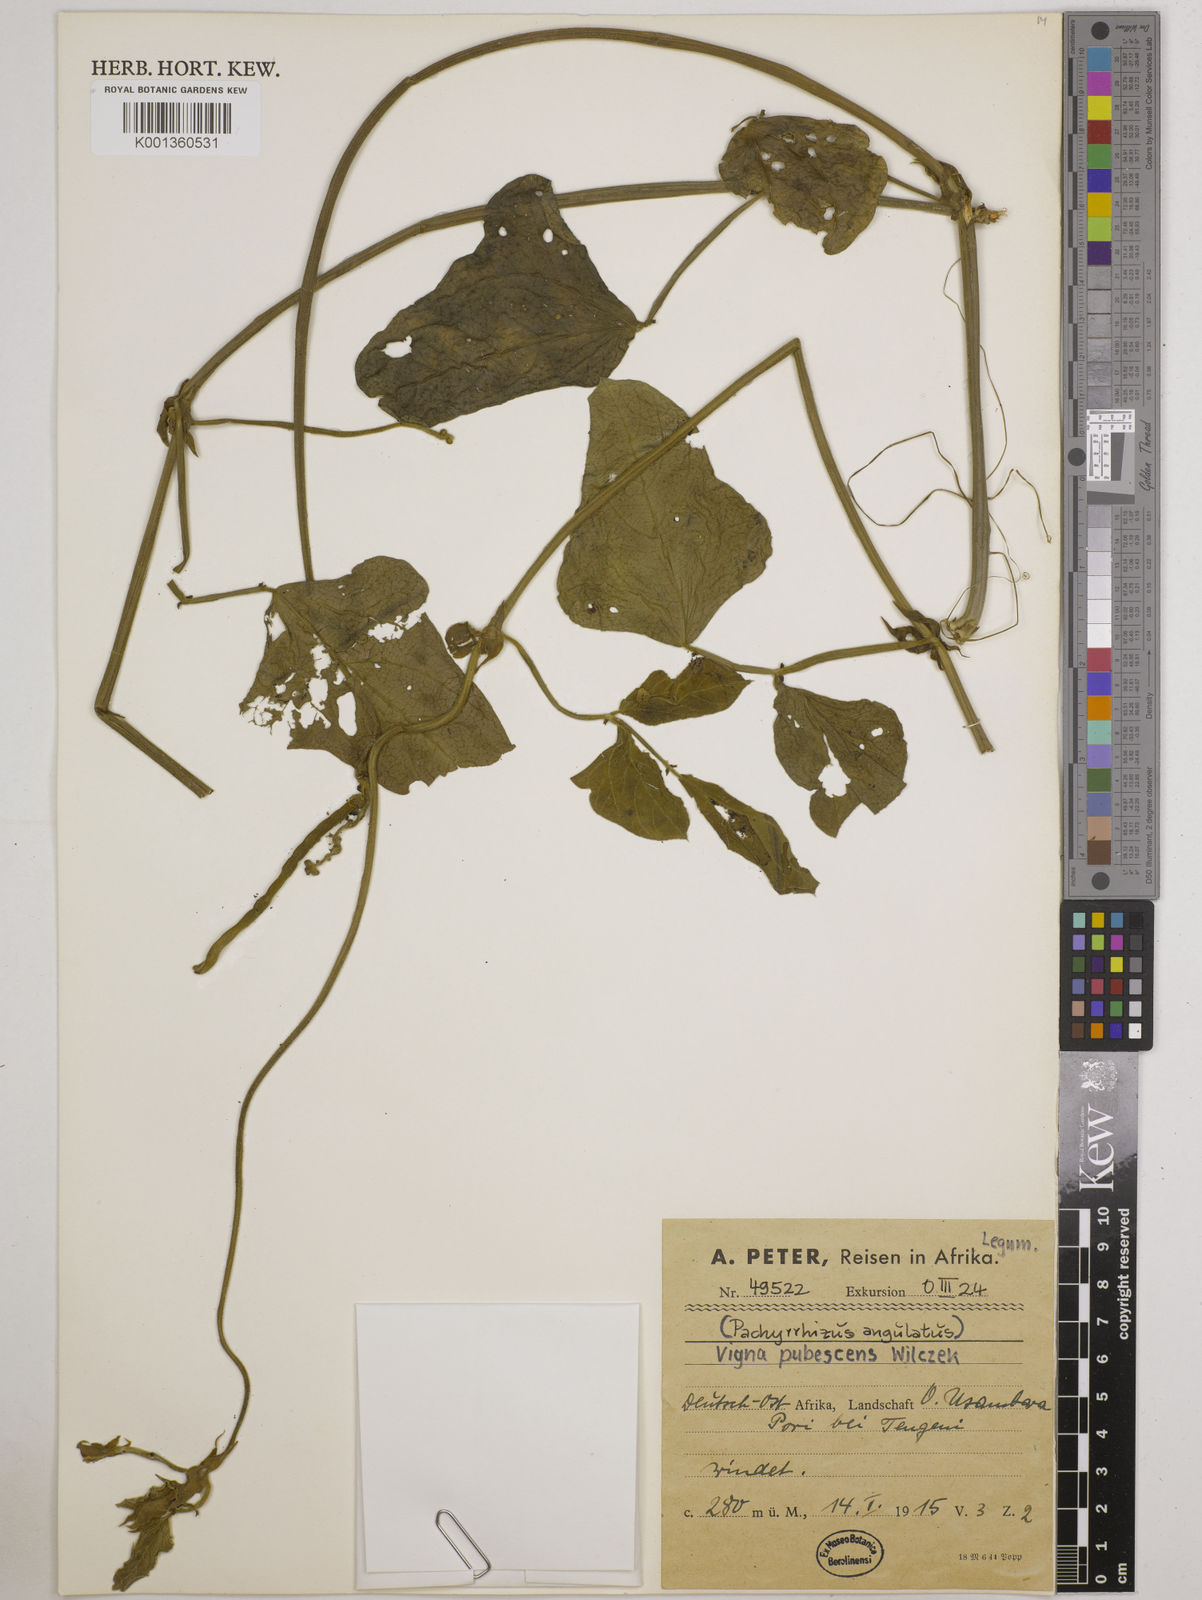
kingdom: Plantae
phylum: Tracheophyta
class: Magnoliopsida
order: Fabales
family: Fabaceae
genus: Vigna
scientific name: Vigna unguiculata
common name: Cowpea
